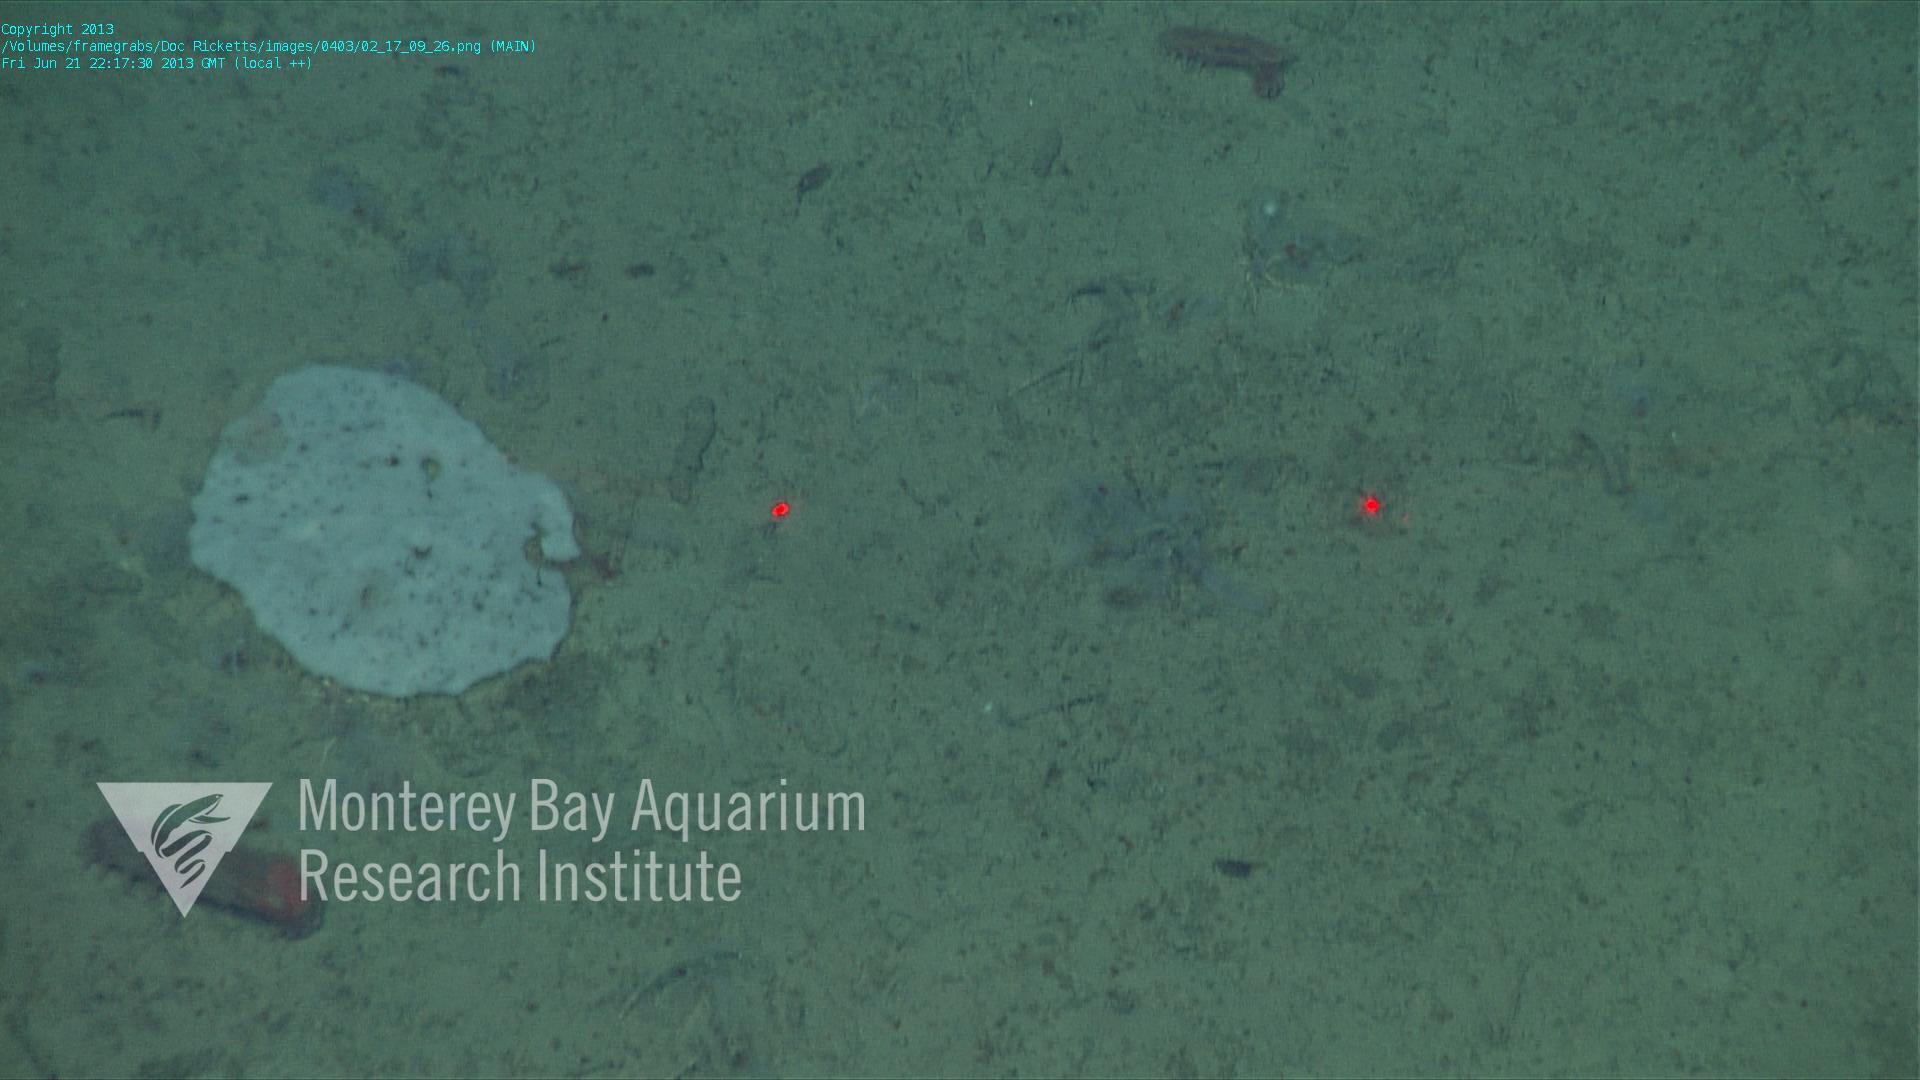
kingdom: Animalia
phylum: Porifera
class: Hexactinellida
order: Lyssacinosida
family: Euplectellidae
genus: Docosaccus
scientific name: Docosaccus maculatus
